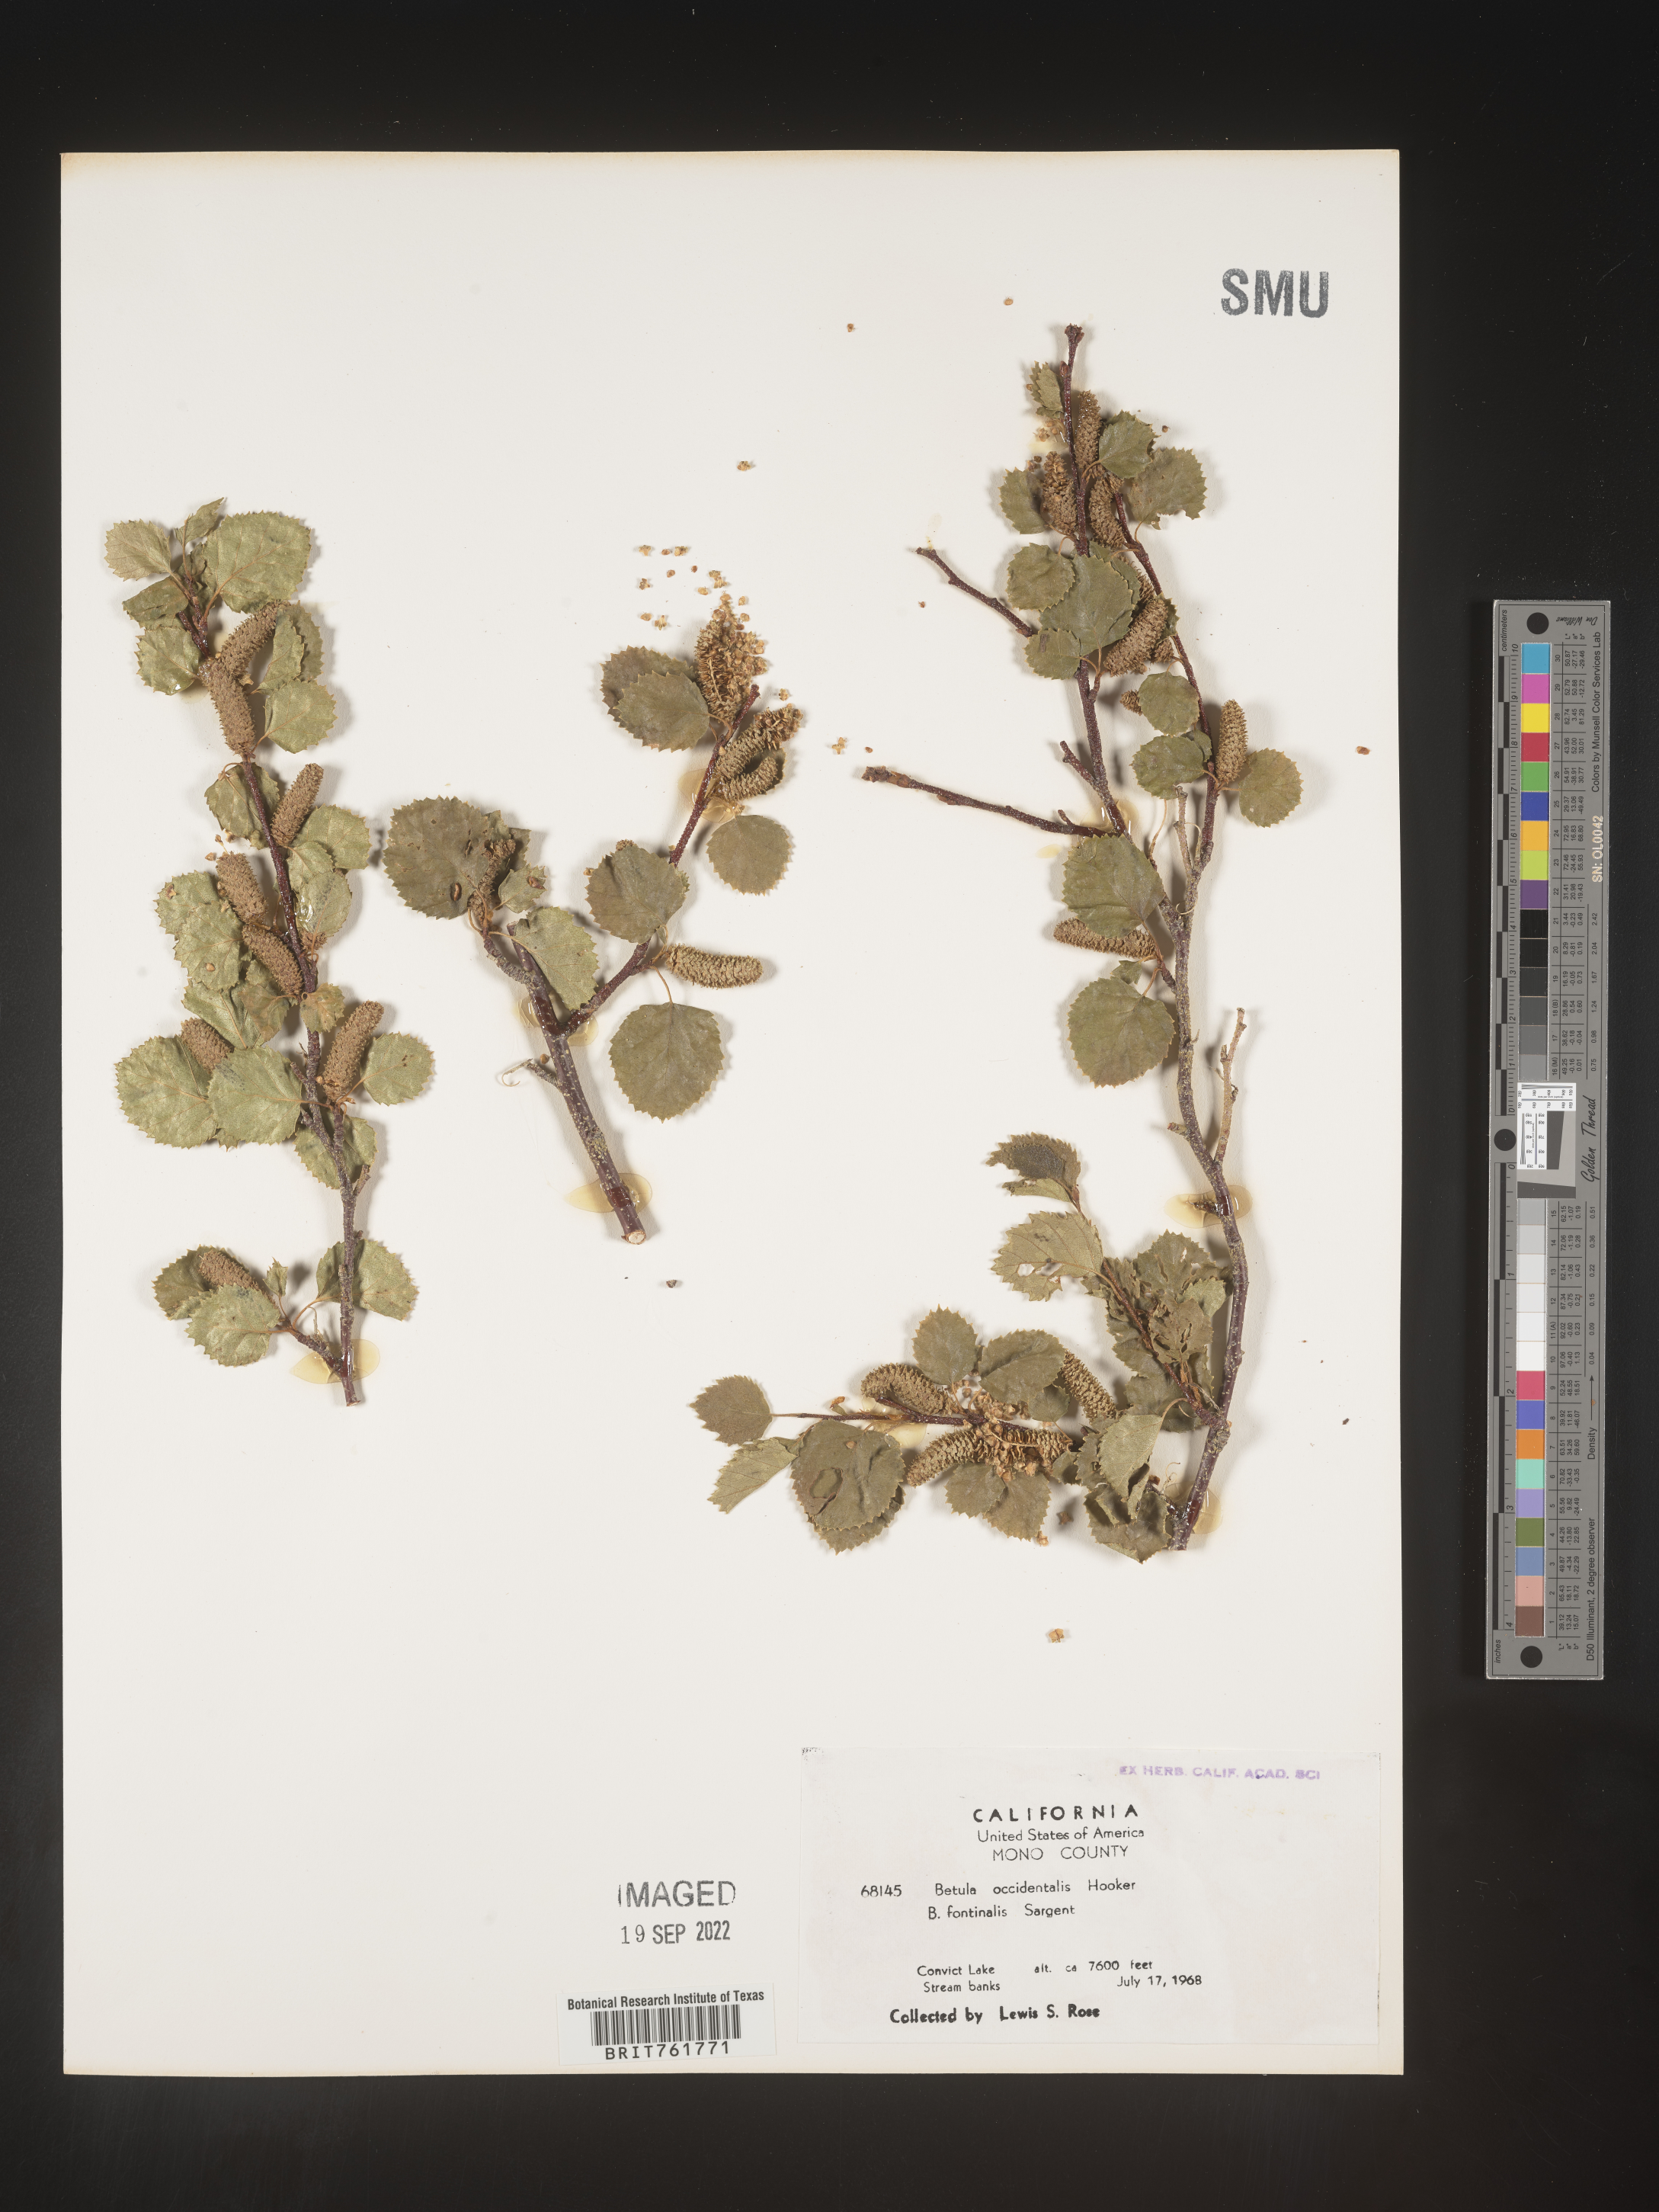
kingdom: Plantae
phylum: Tracheophyta
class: Magnoliopsida
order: Fagales
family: Betulaceae
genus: Betula
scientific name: Betula occidentalis
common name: River birch
